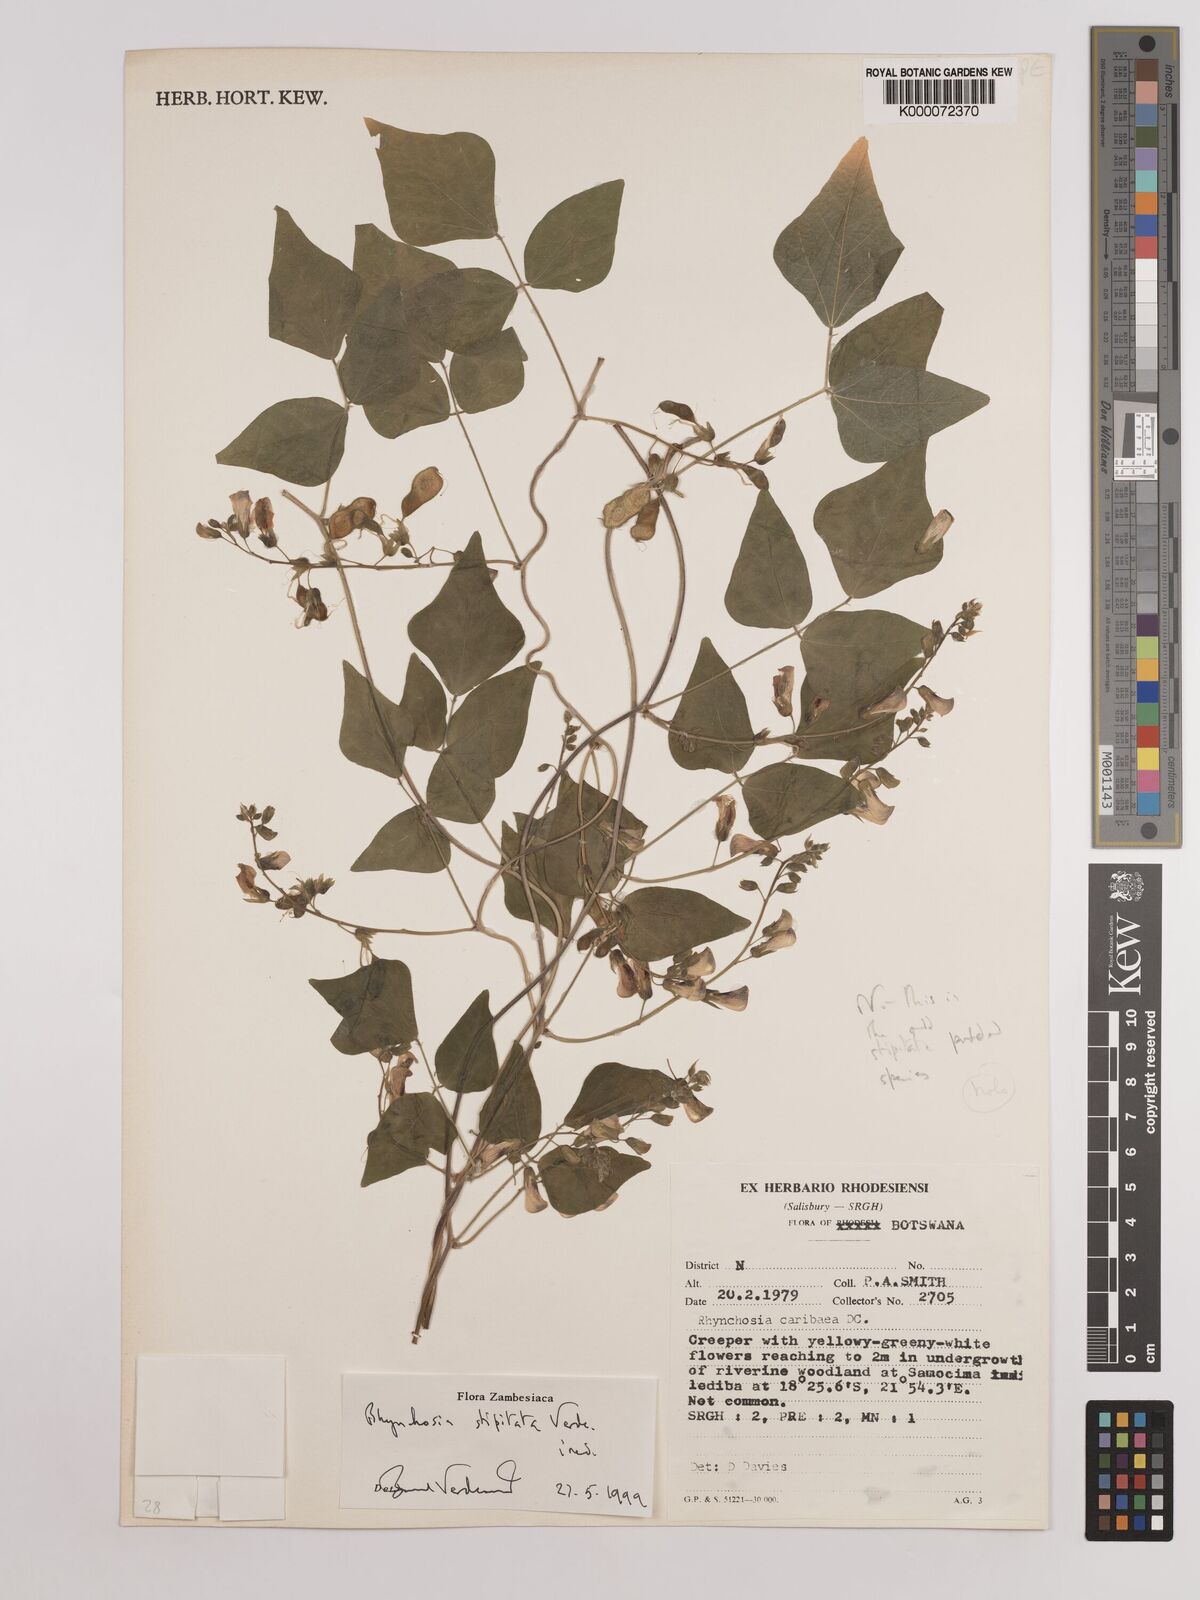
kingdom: Plantae
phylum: Tracheophyta
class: Magnoliopsida
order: Fabales
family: Fabaceae
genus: Rhynchosia
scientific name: Rhynchosia stipitata
